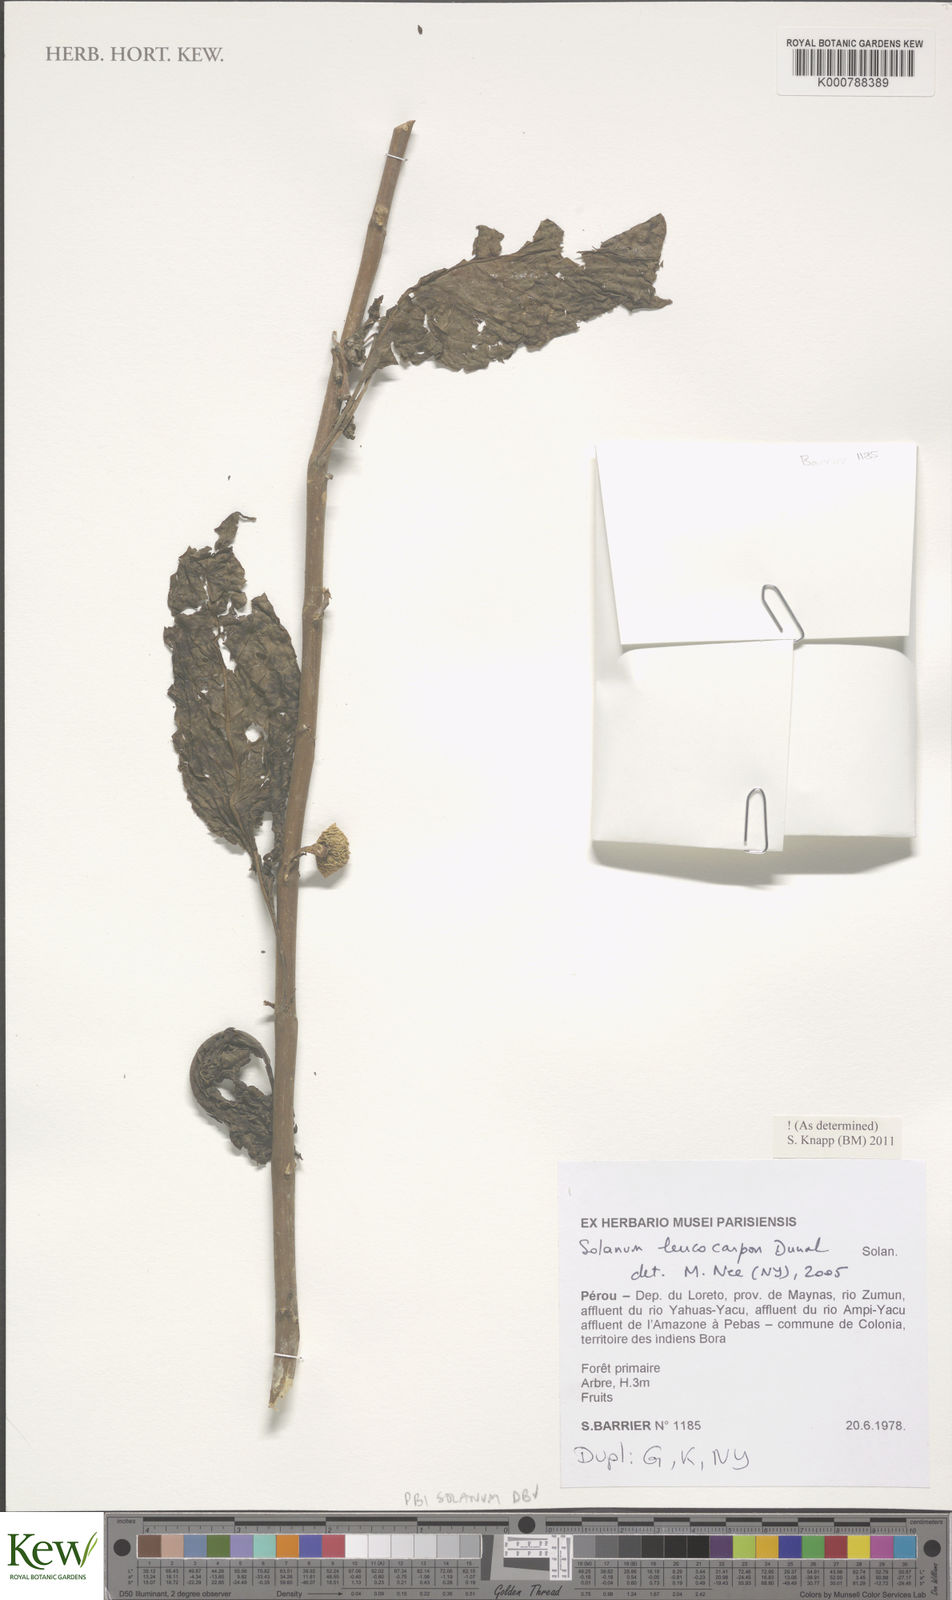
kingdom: Plantae
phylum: Tracheophyta
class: Magnoliopsida
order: Solanales
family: Solanaceae
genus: Solanum
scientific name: Solanum leucocarpon
